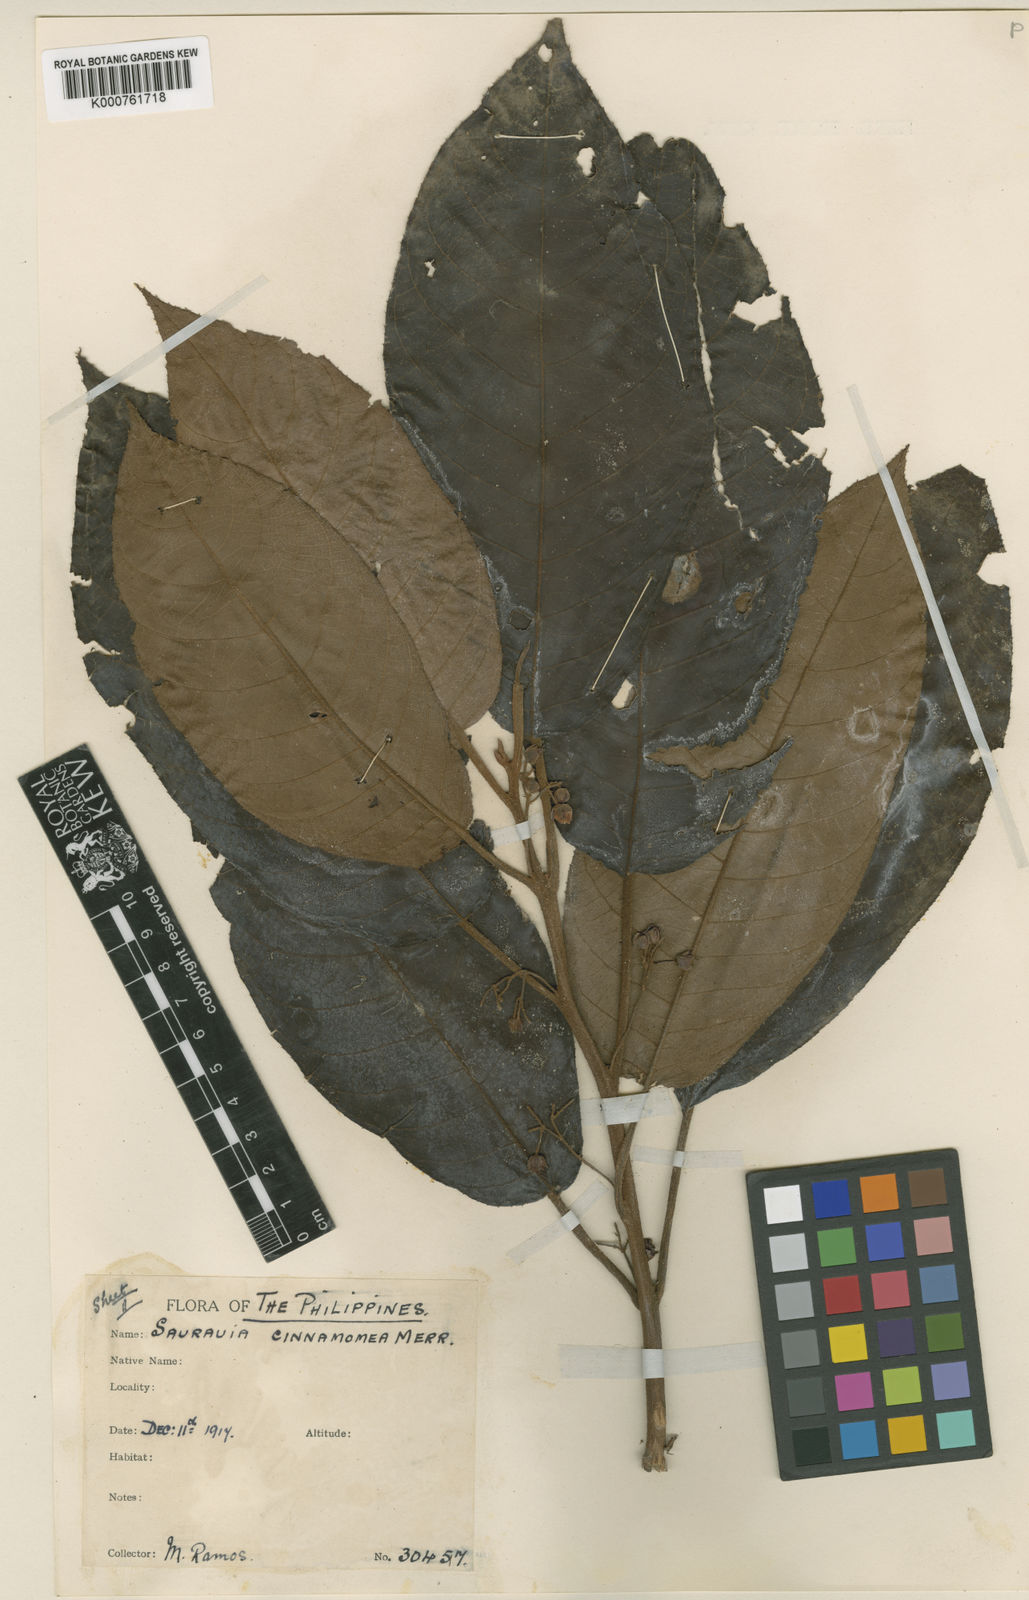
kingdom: Plantae
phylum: Tracheophyta
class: Magnoliopsida
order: Ericales
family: Actinidiaceae
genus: Saurauia
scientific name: Saurauia cinnamomea
